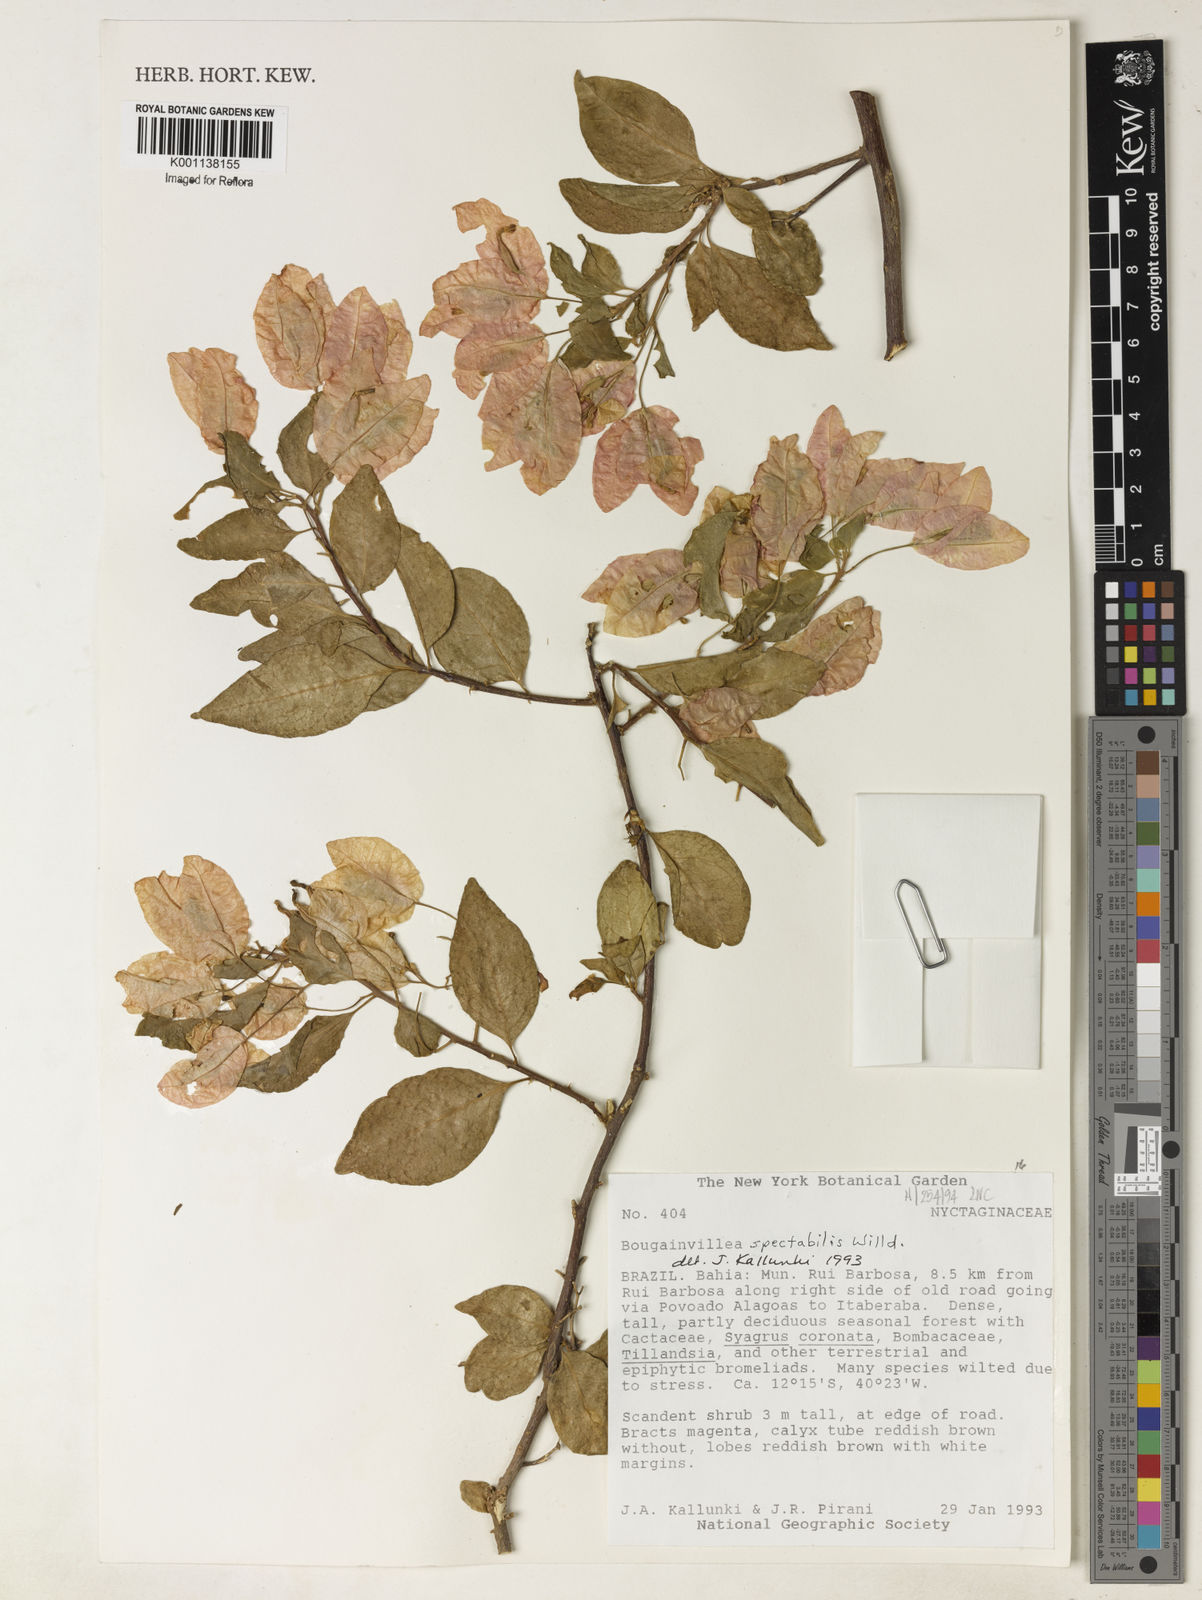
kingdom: Plantae
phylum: Tracheophyta
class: Magnoliopsida
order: Caryophyllales
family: Nyctaginaceae
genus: Bougainvillea
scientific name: Bougainvillea spectabilis
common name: Great bougainvillea
